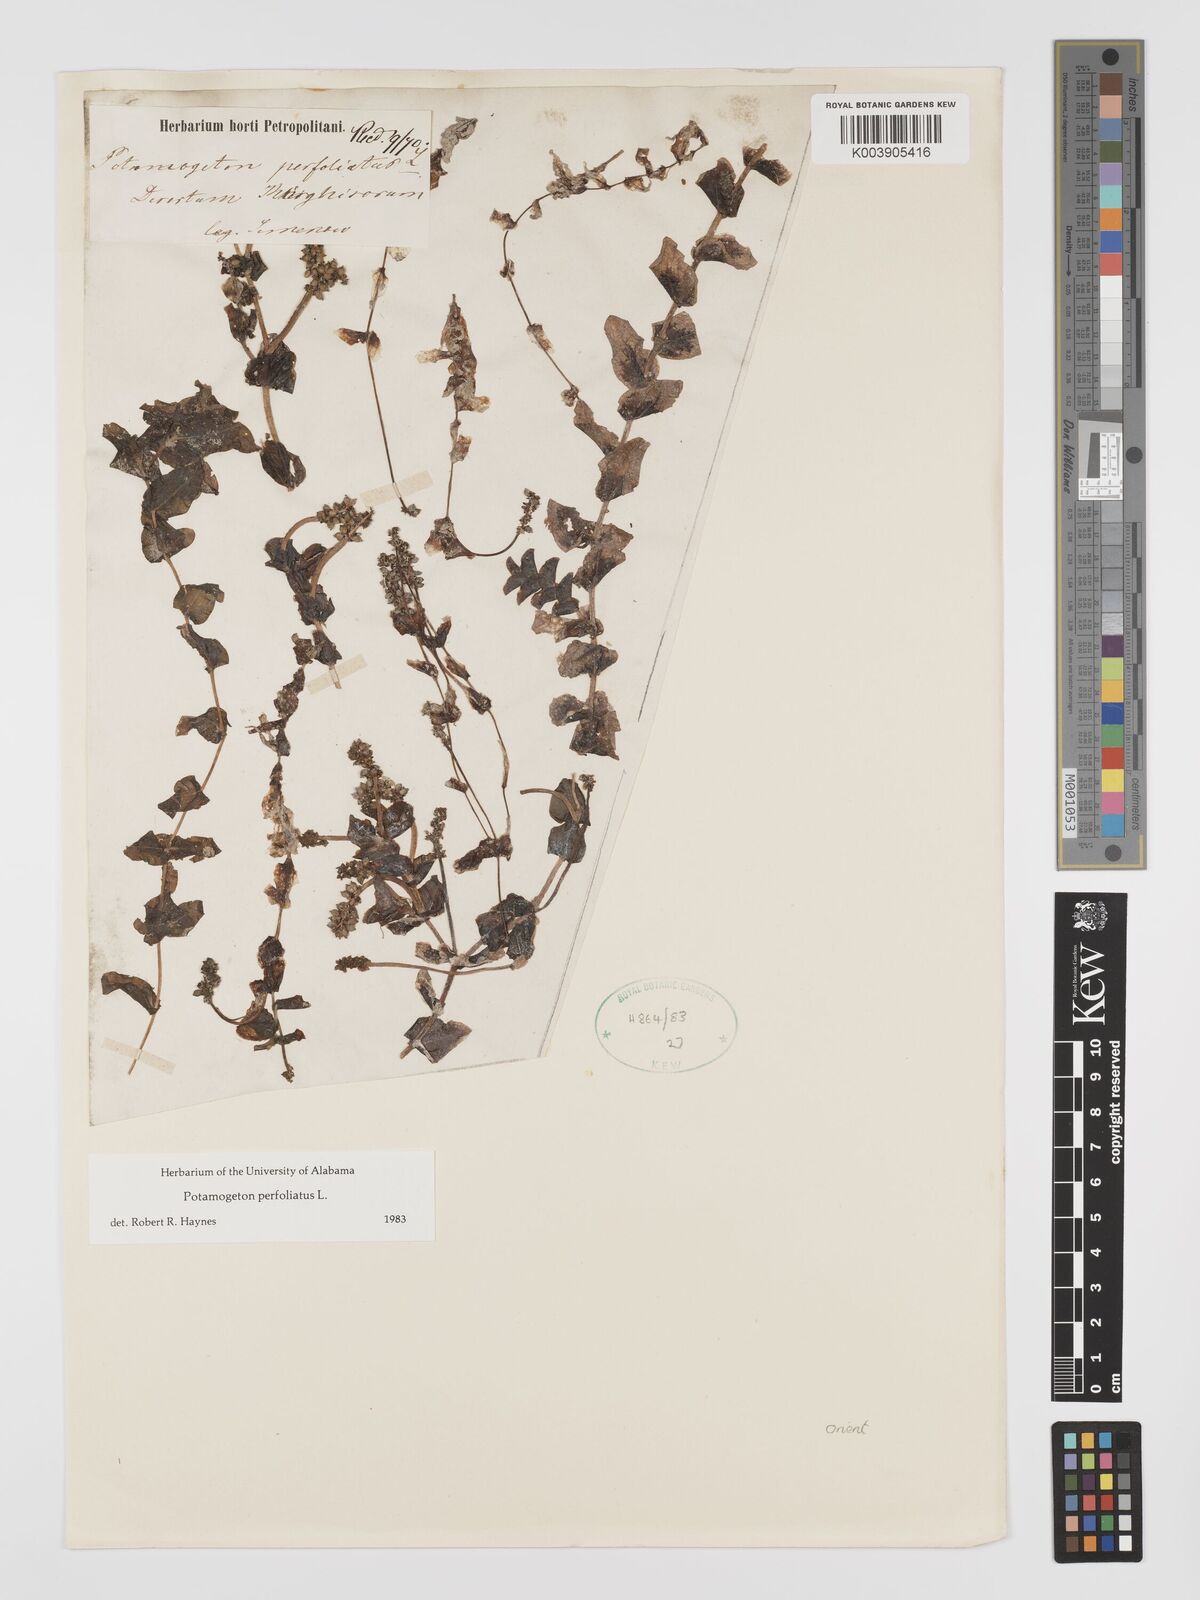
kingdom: Plantae
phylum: Tracheophyta
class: Liliopsida
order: Alismatales
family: Potamogetonaceae
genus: Potamogeton
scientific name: Potamogeton perfoliatus
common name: Perfoliate pondweed
